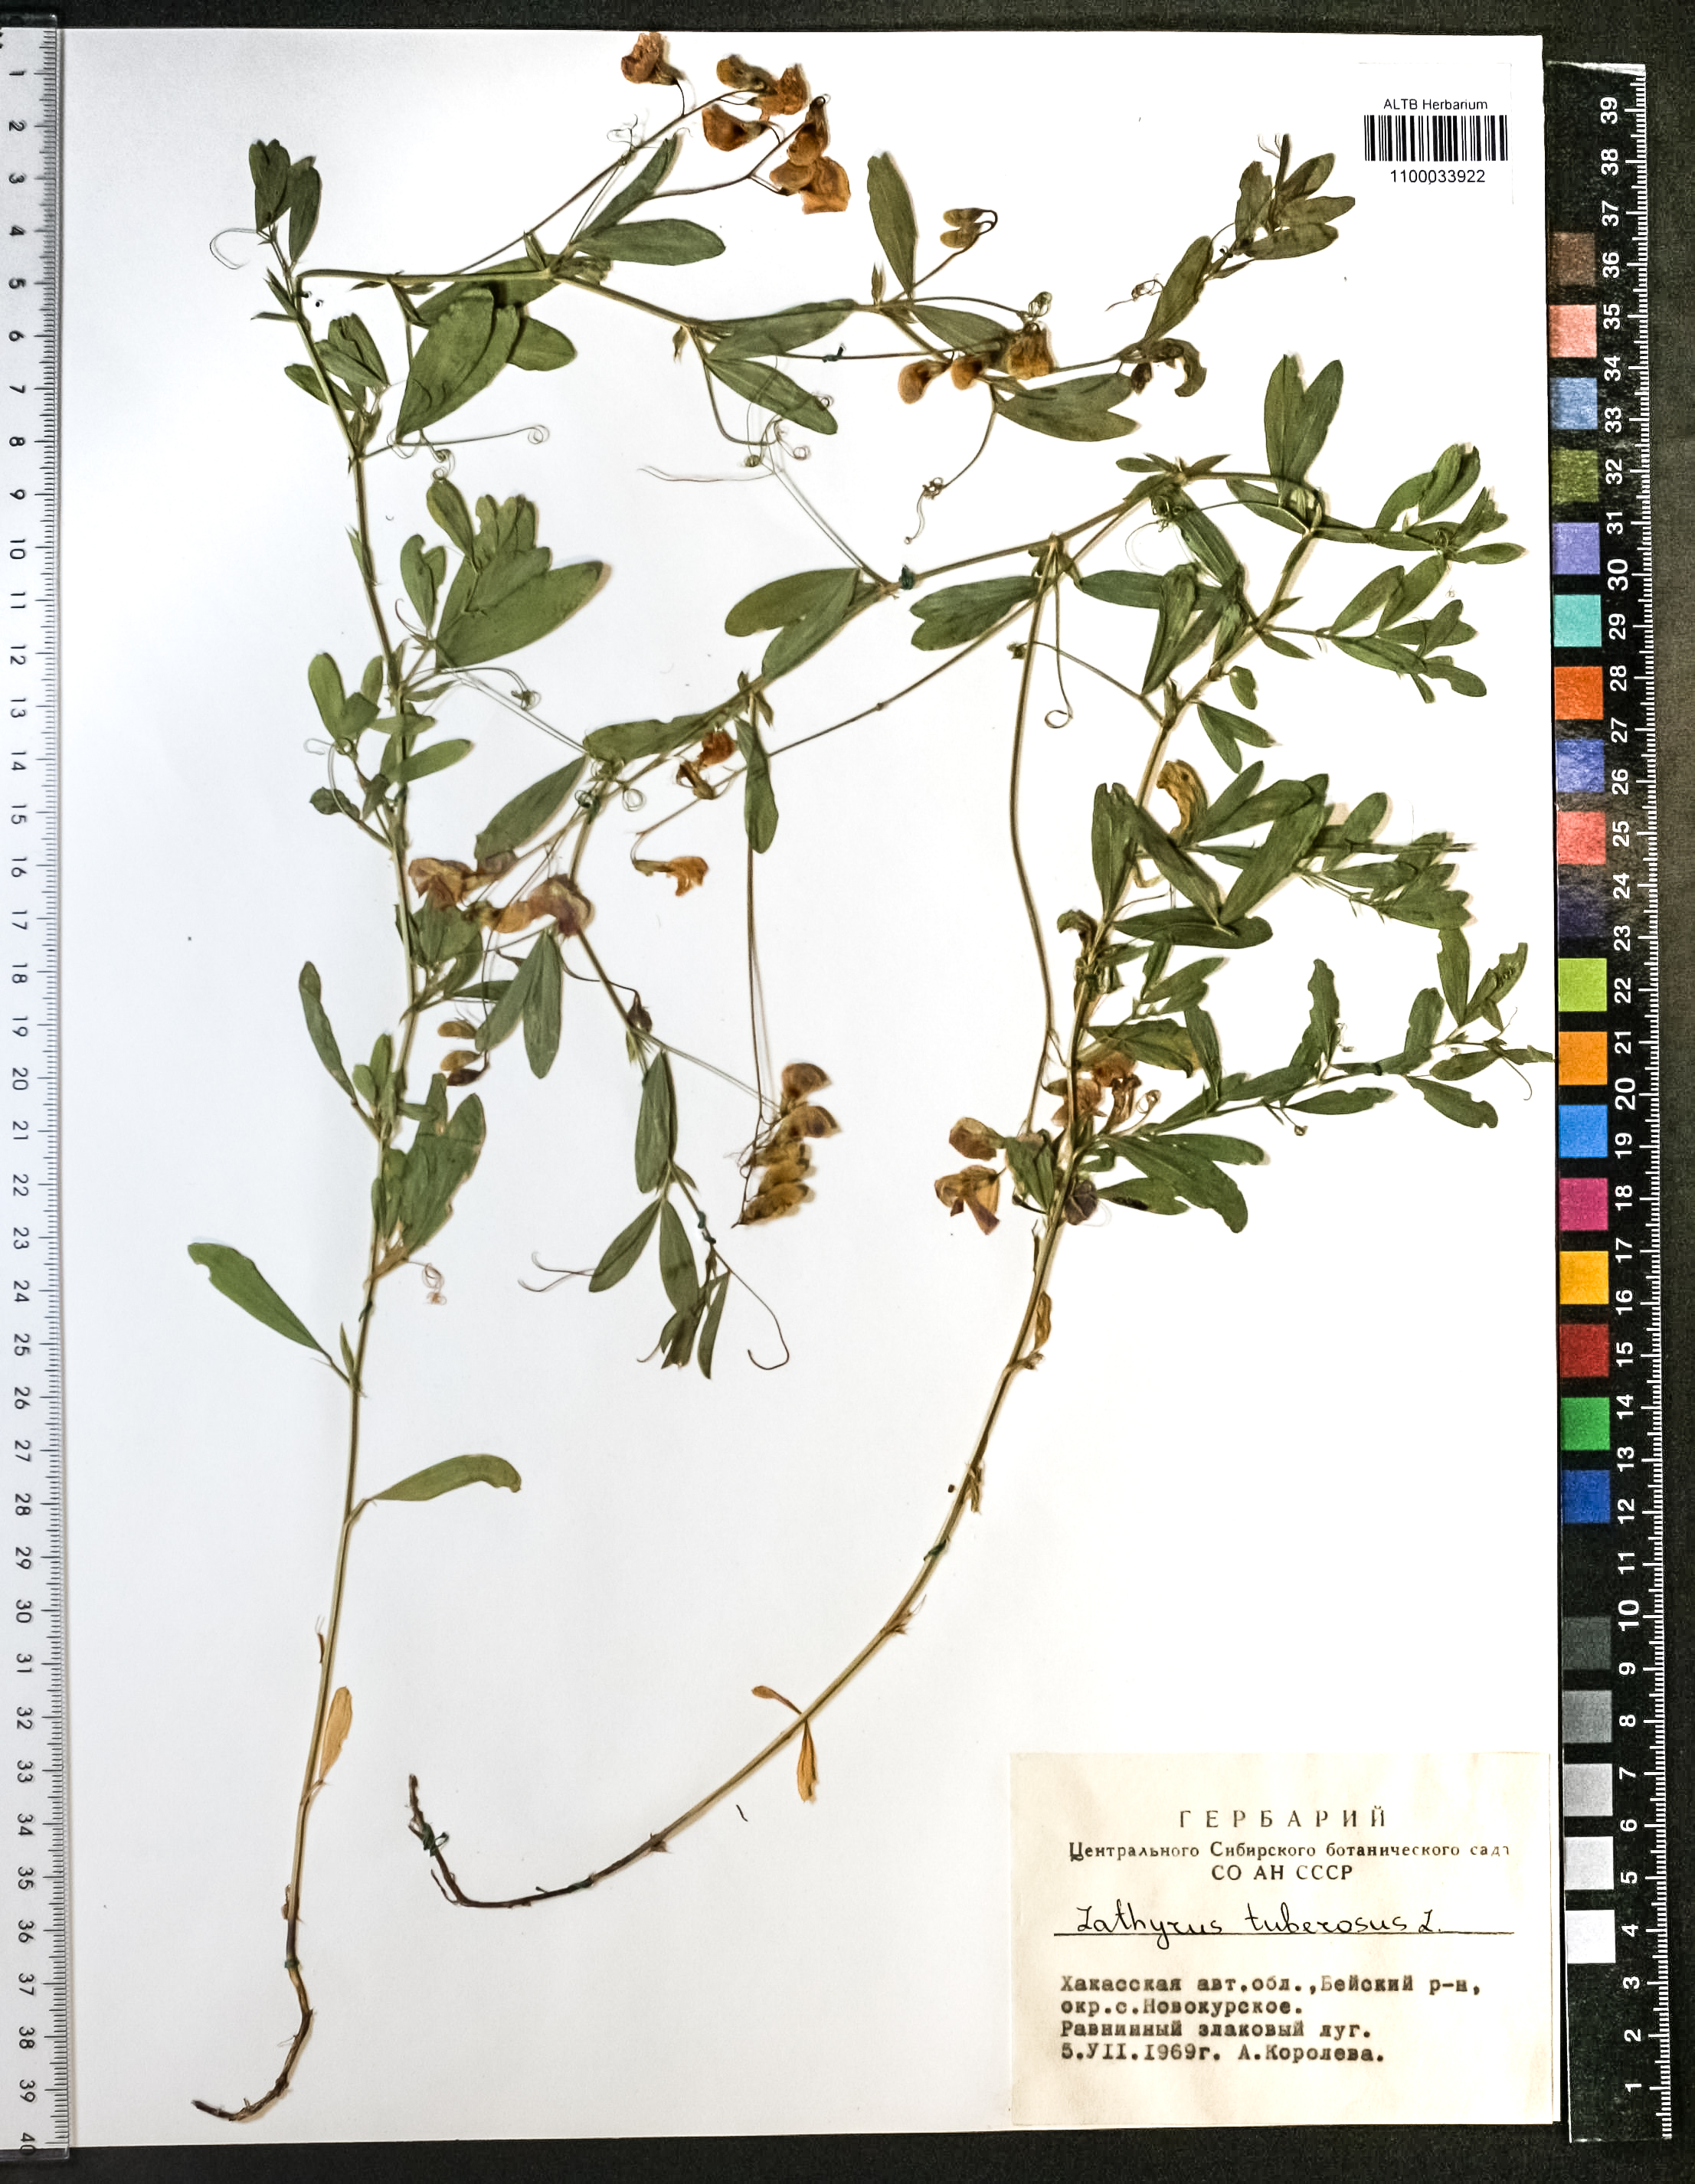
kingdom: Plantae
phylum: Tracheophyta
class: Magnoliopsida
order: Fabales
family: Fabaceae
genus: Lathyrus
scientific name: Lathyrus tuberosus
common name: Tuberous pea
